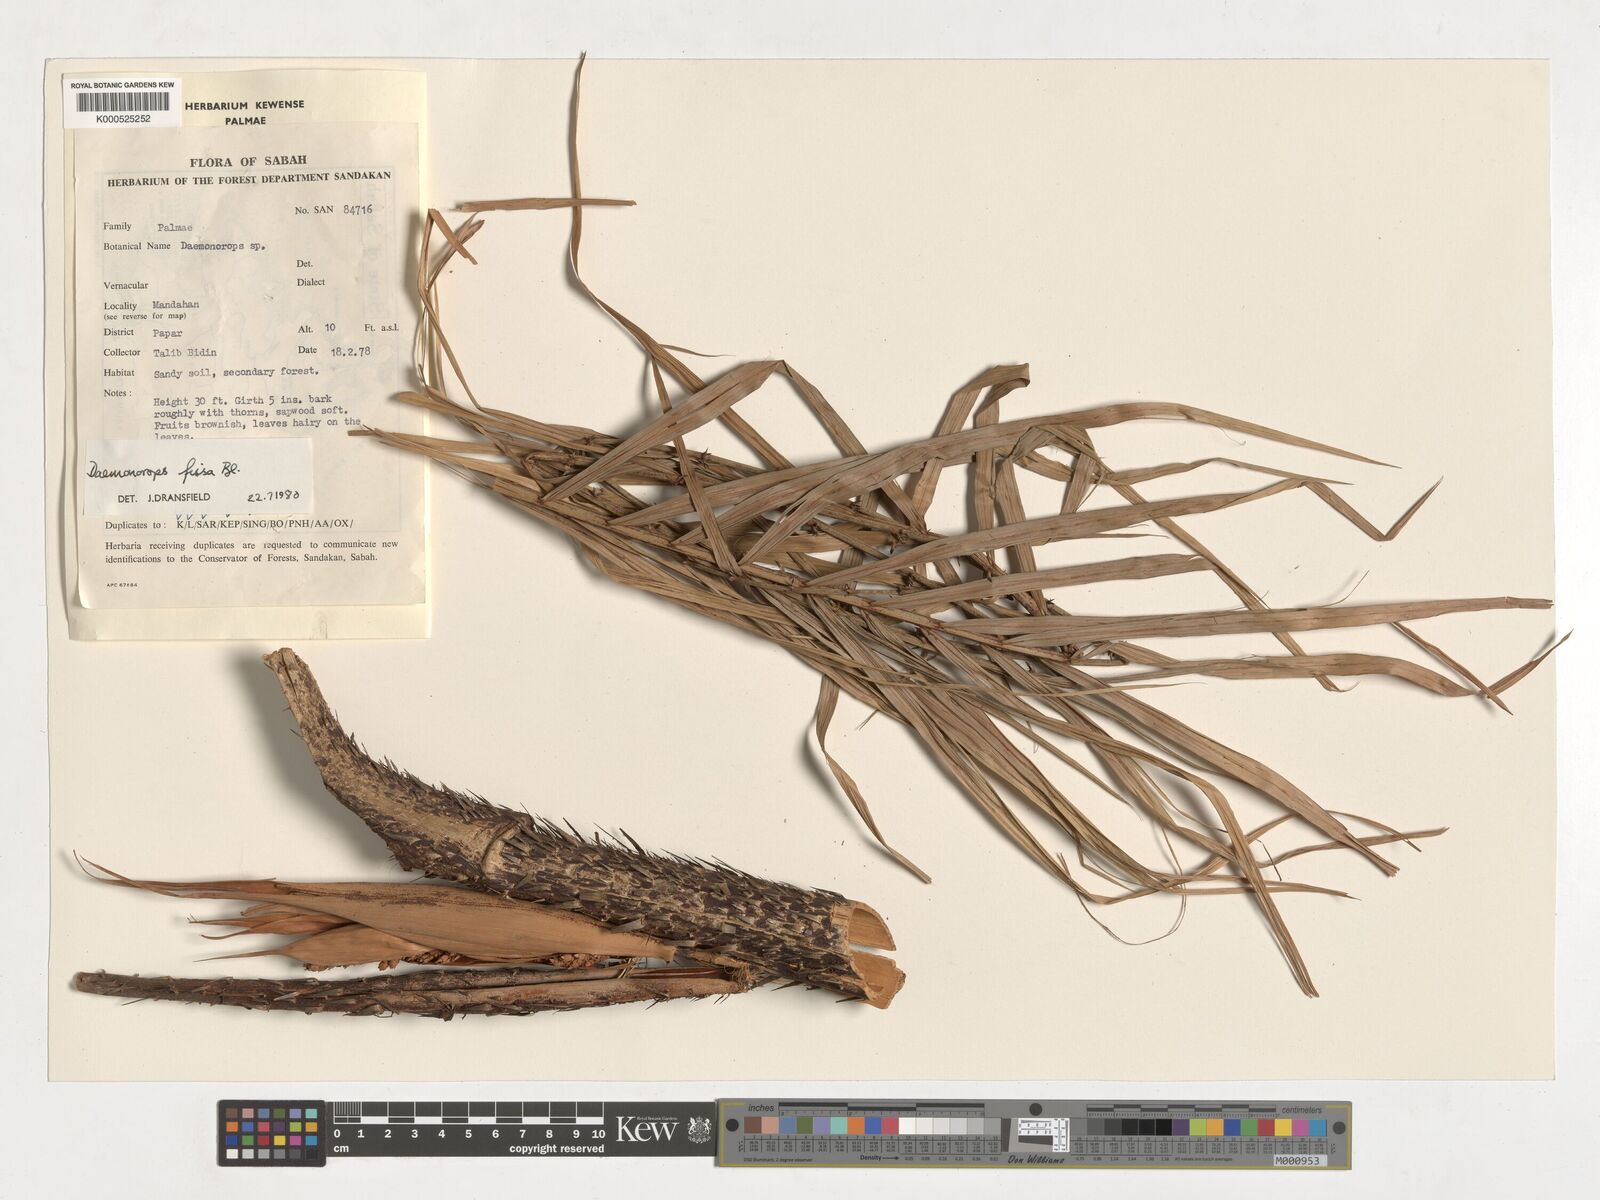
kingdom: Plantae
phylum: Tracheophyta
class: Liliopsida
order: Arecales
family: Arecaceae
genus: Calamus
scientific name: Calamus melanochaetes
